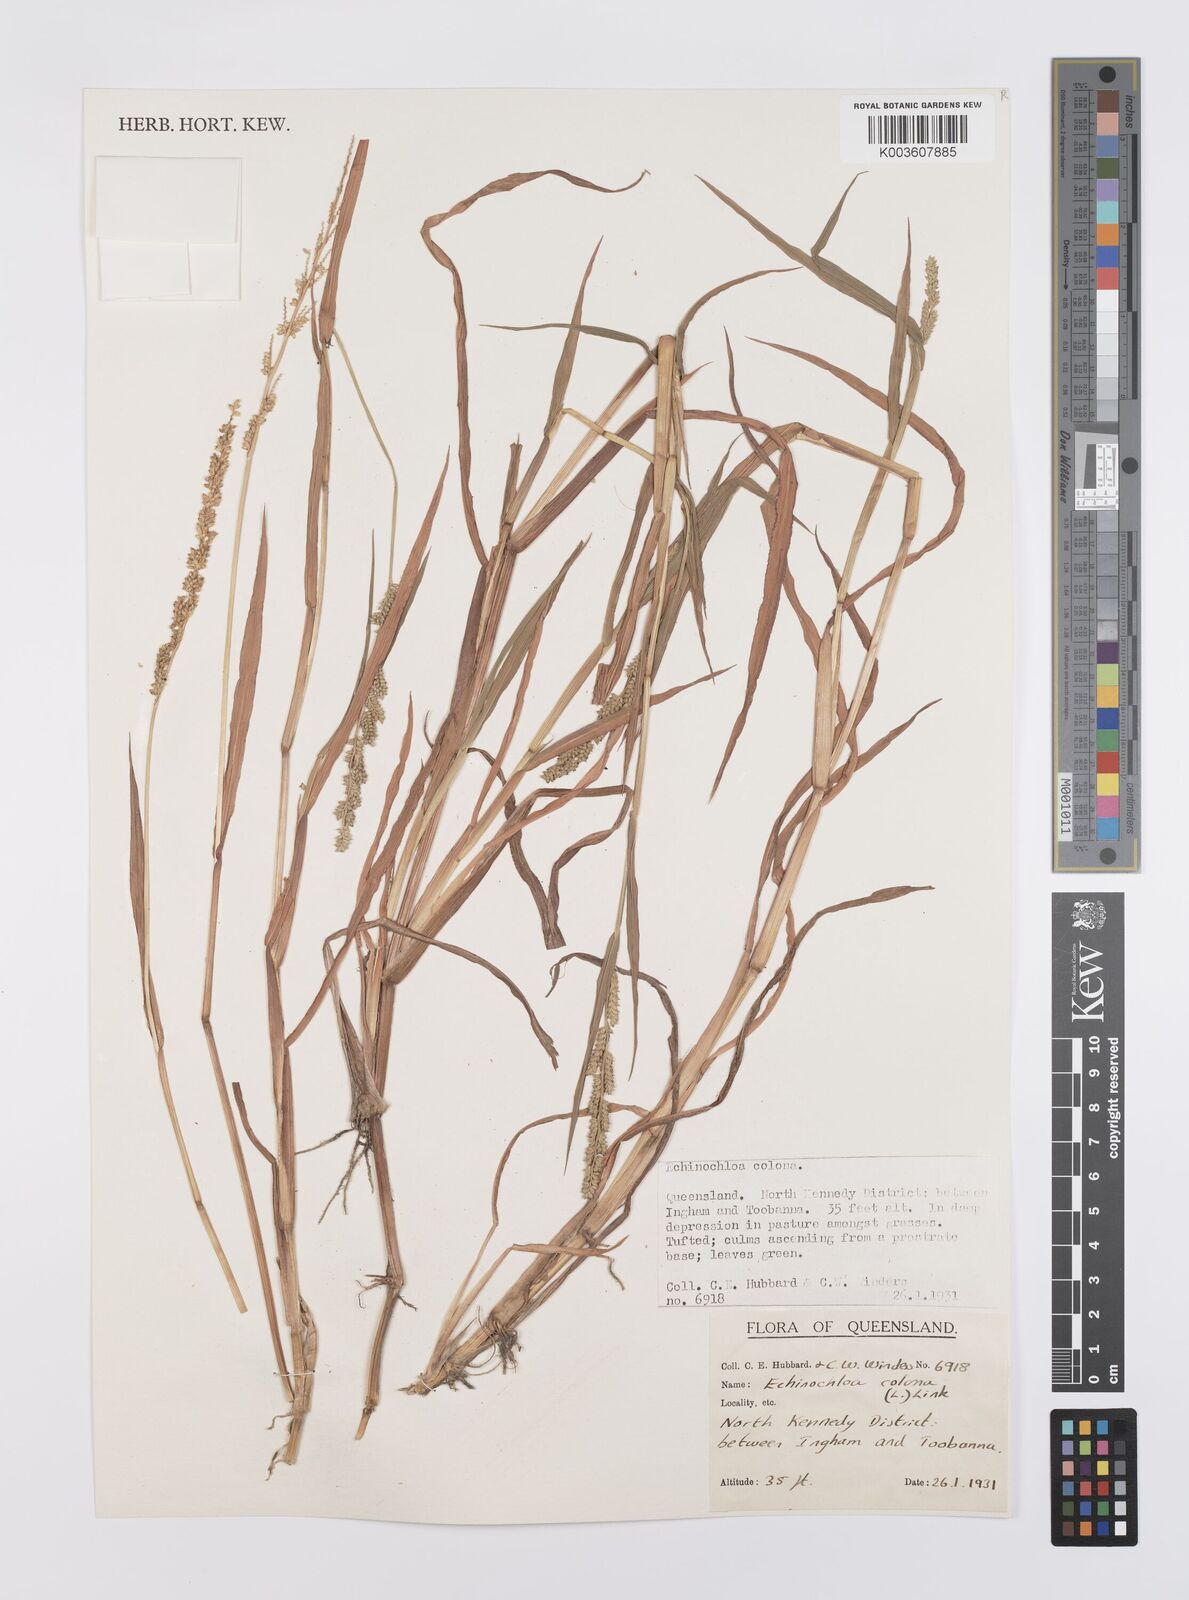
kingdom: Plantae
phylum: Tracheophyta
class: Liliopsida
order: Poales
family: Poaceae
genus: Echinochloa
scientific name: Echinochloa colonum
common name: Jungle rice
